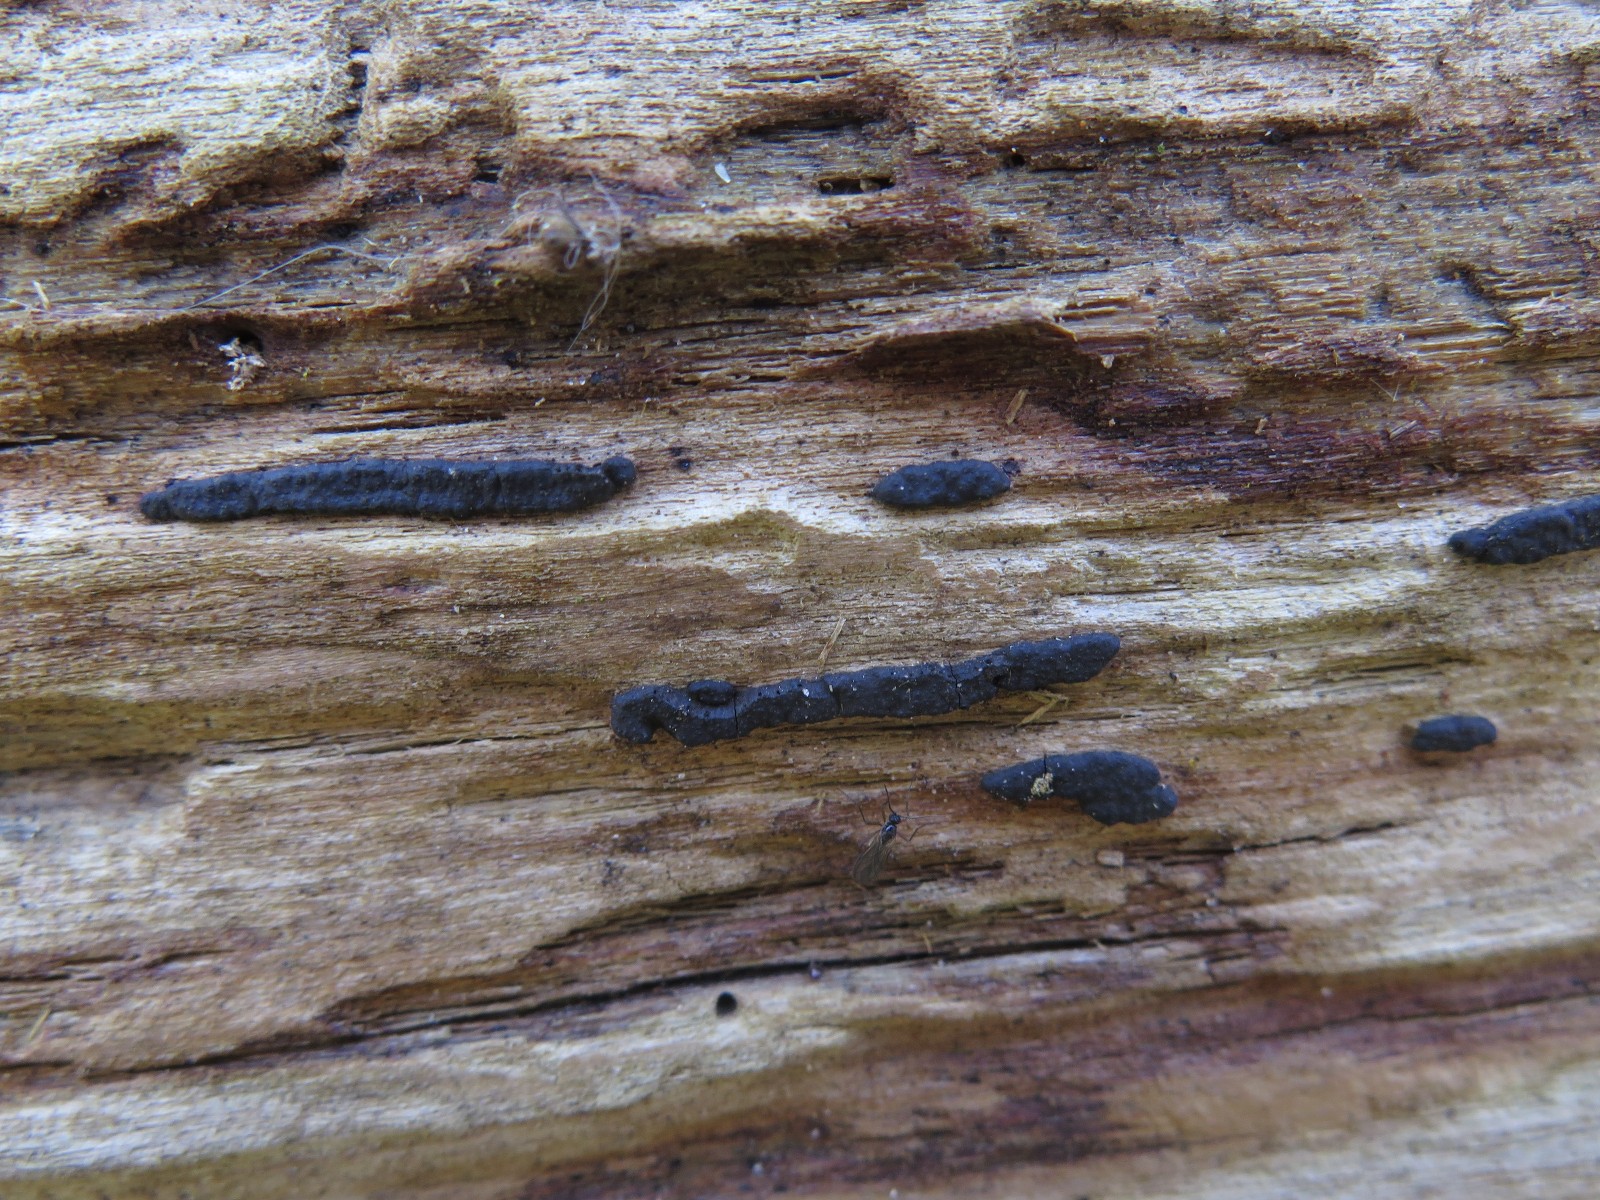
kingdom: Fungi
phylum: Ascomycota
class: Sordariomycetes
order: Xylariales
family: Xylariaceae
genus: Nemania
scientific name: Nemania serpens
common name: almindelig kuldyne
